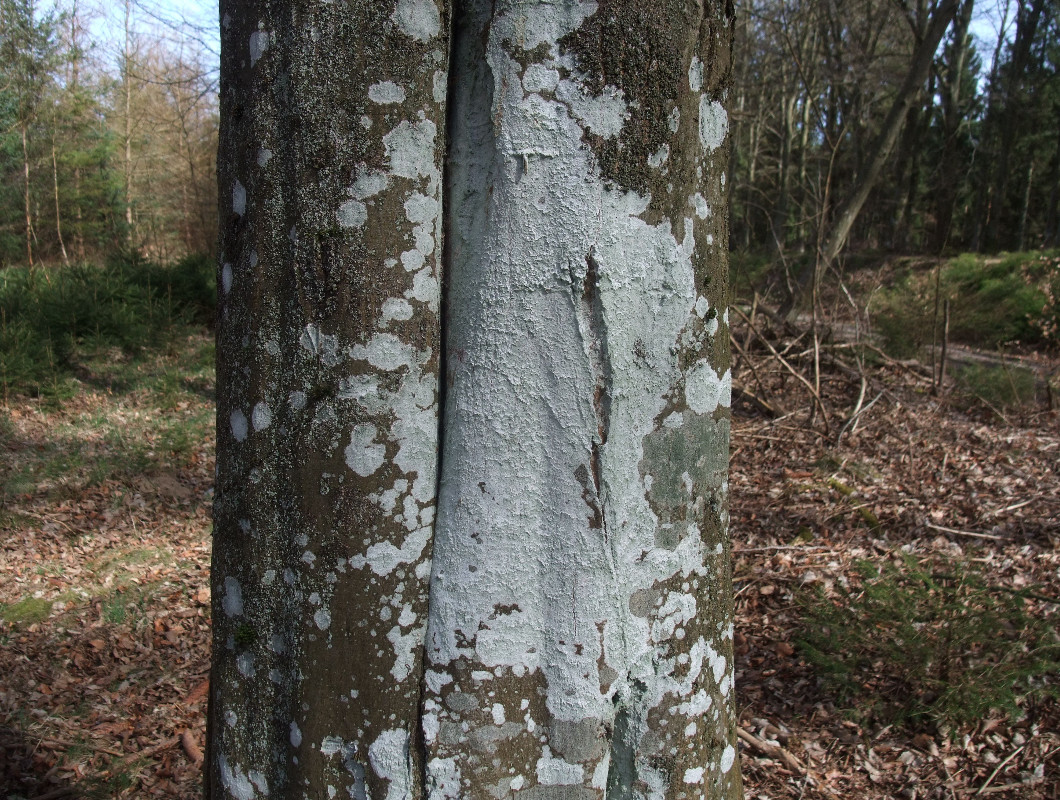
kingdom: Fungi
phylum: Ascomycota
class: Lecanoromycetes
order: Ostropales
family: Phlyctidaceae
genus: Phlyctis
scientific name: Phlyctis argena
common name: almindelig sølvlav
